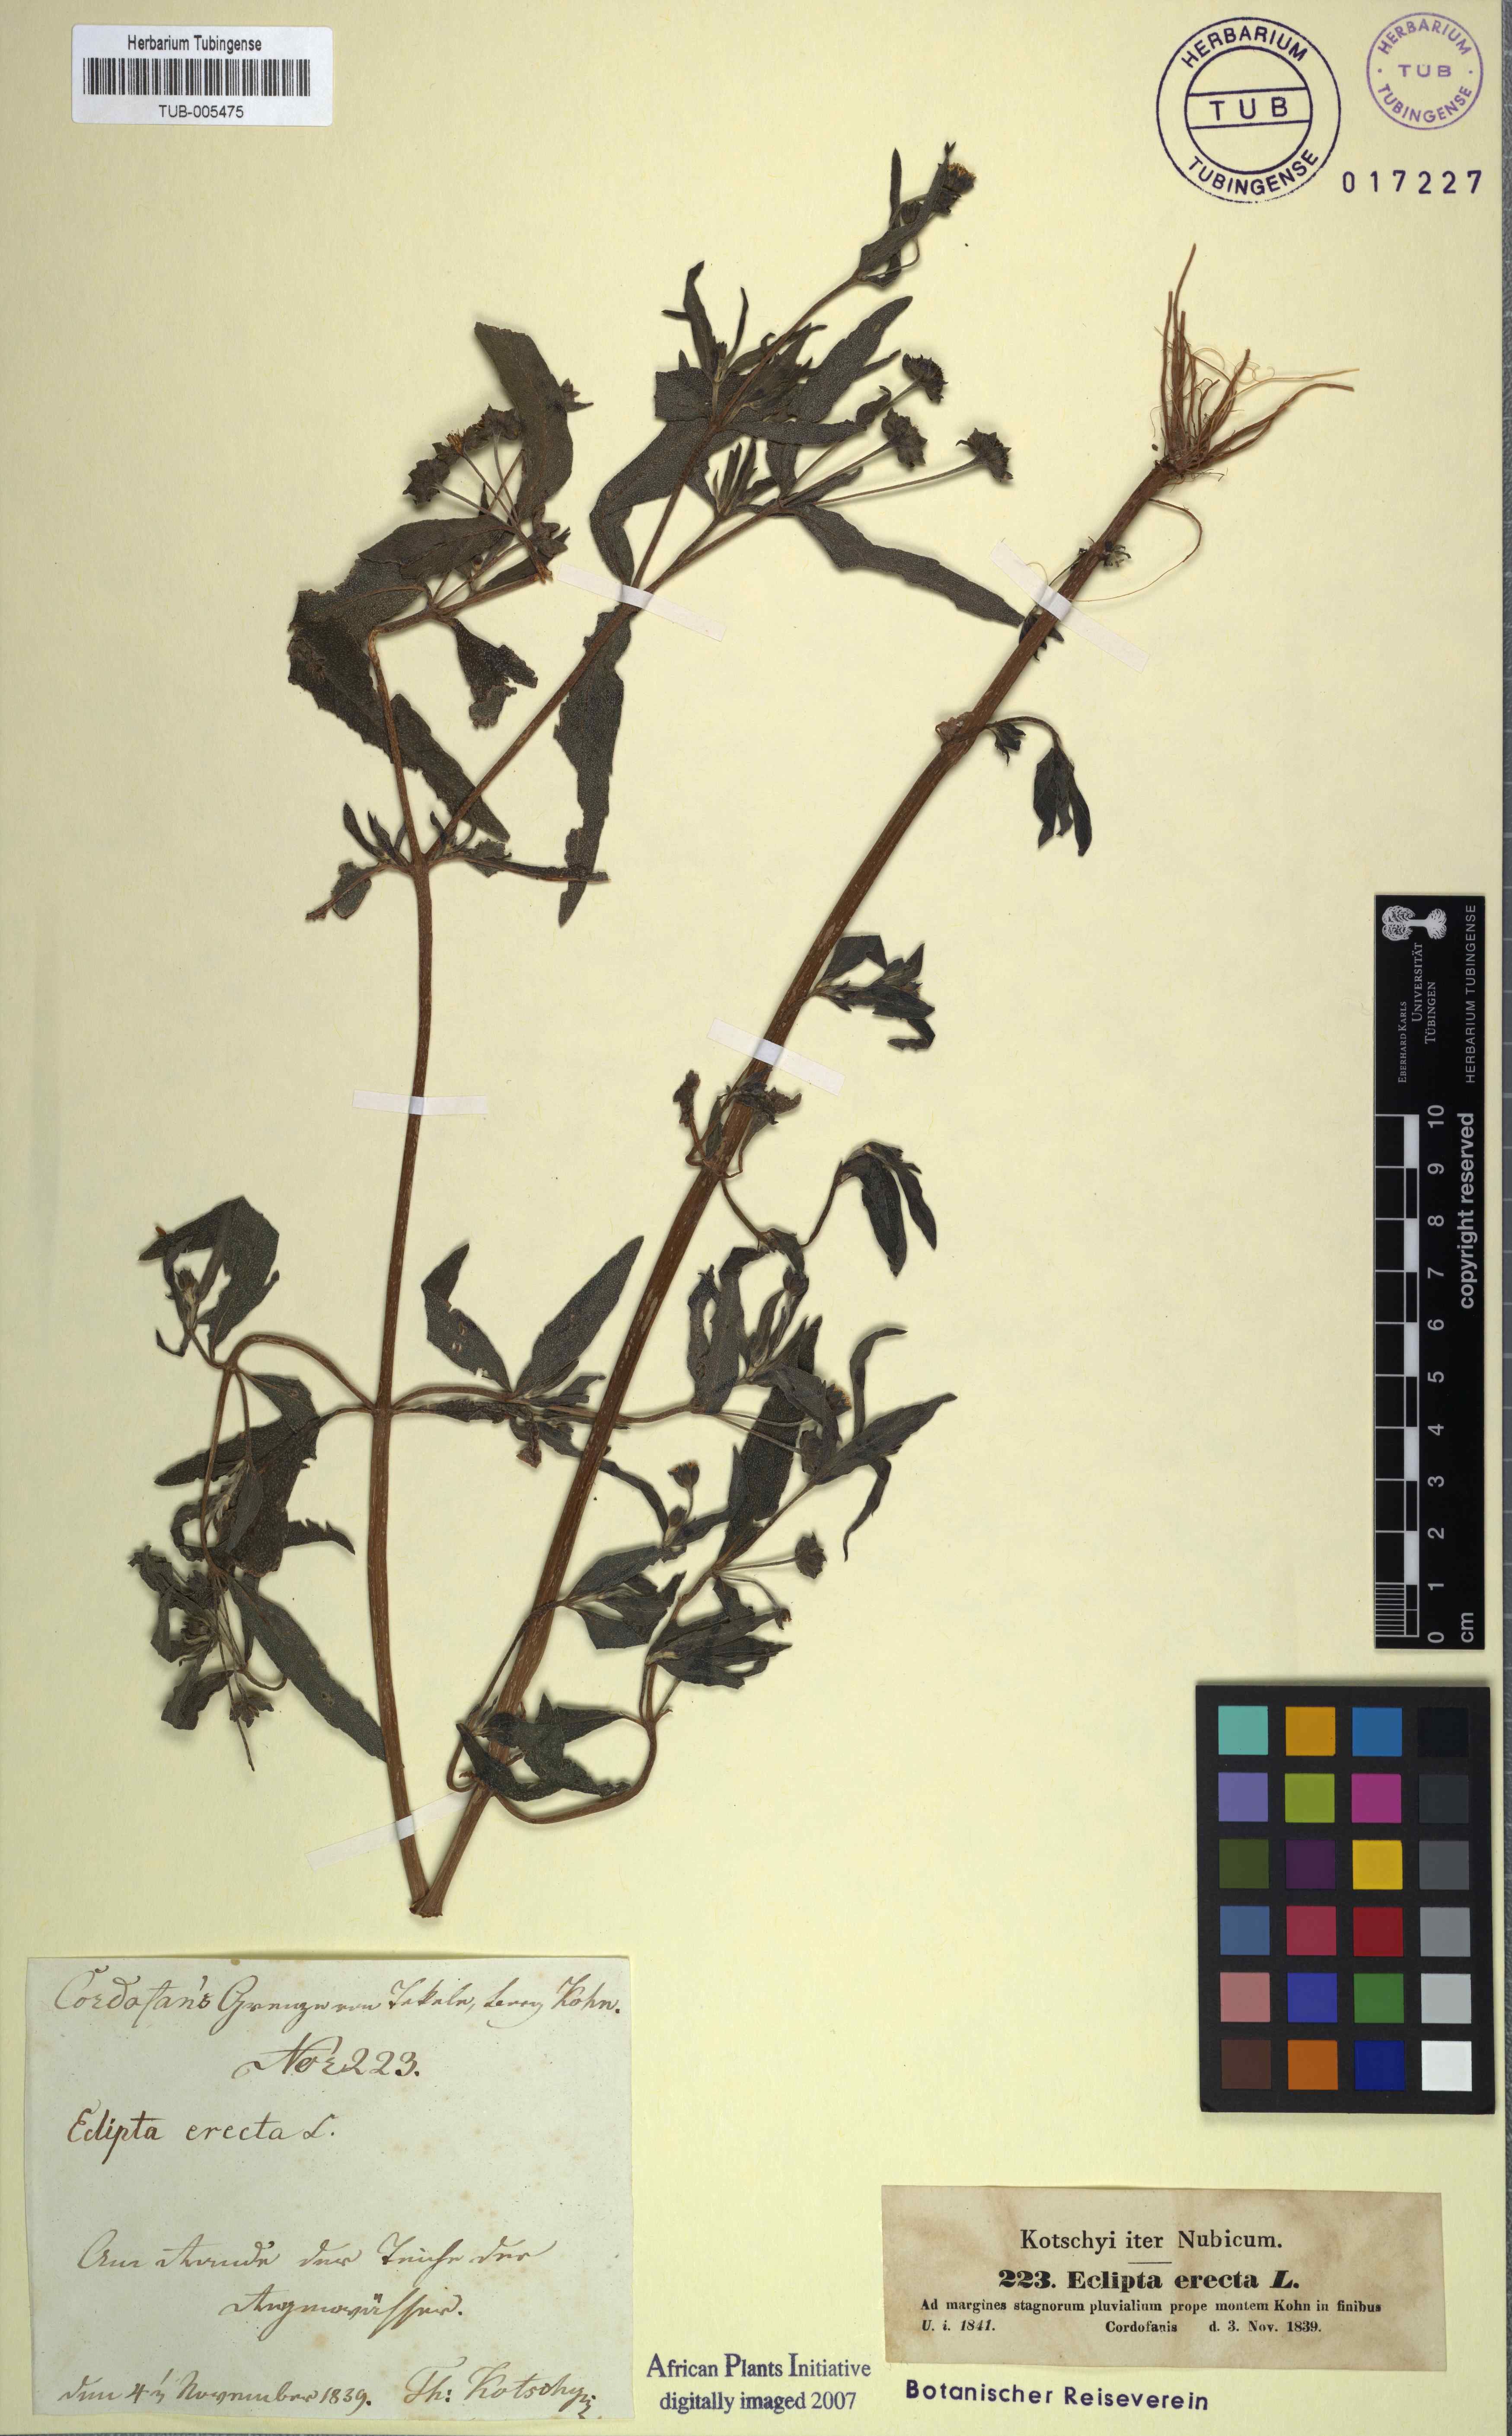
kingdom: Plantae
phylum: Tracheophyta
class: Magnoliopsida
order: Asterales
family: Asteraceae
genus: Eclipta
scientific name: Eclipta alba
